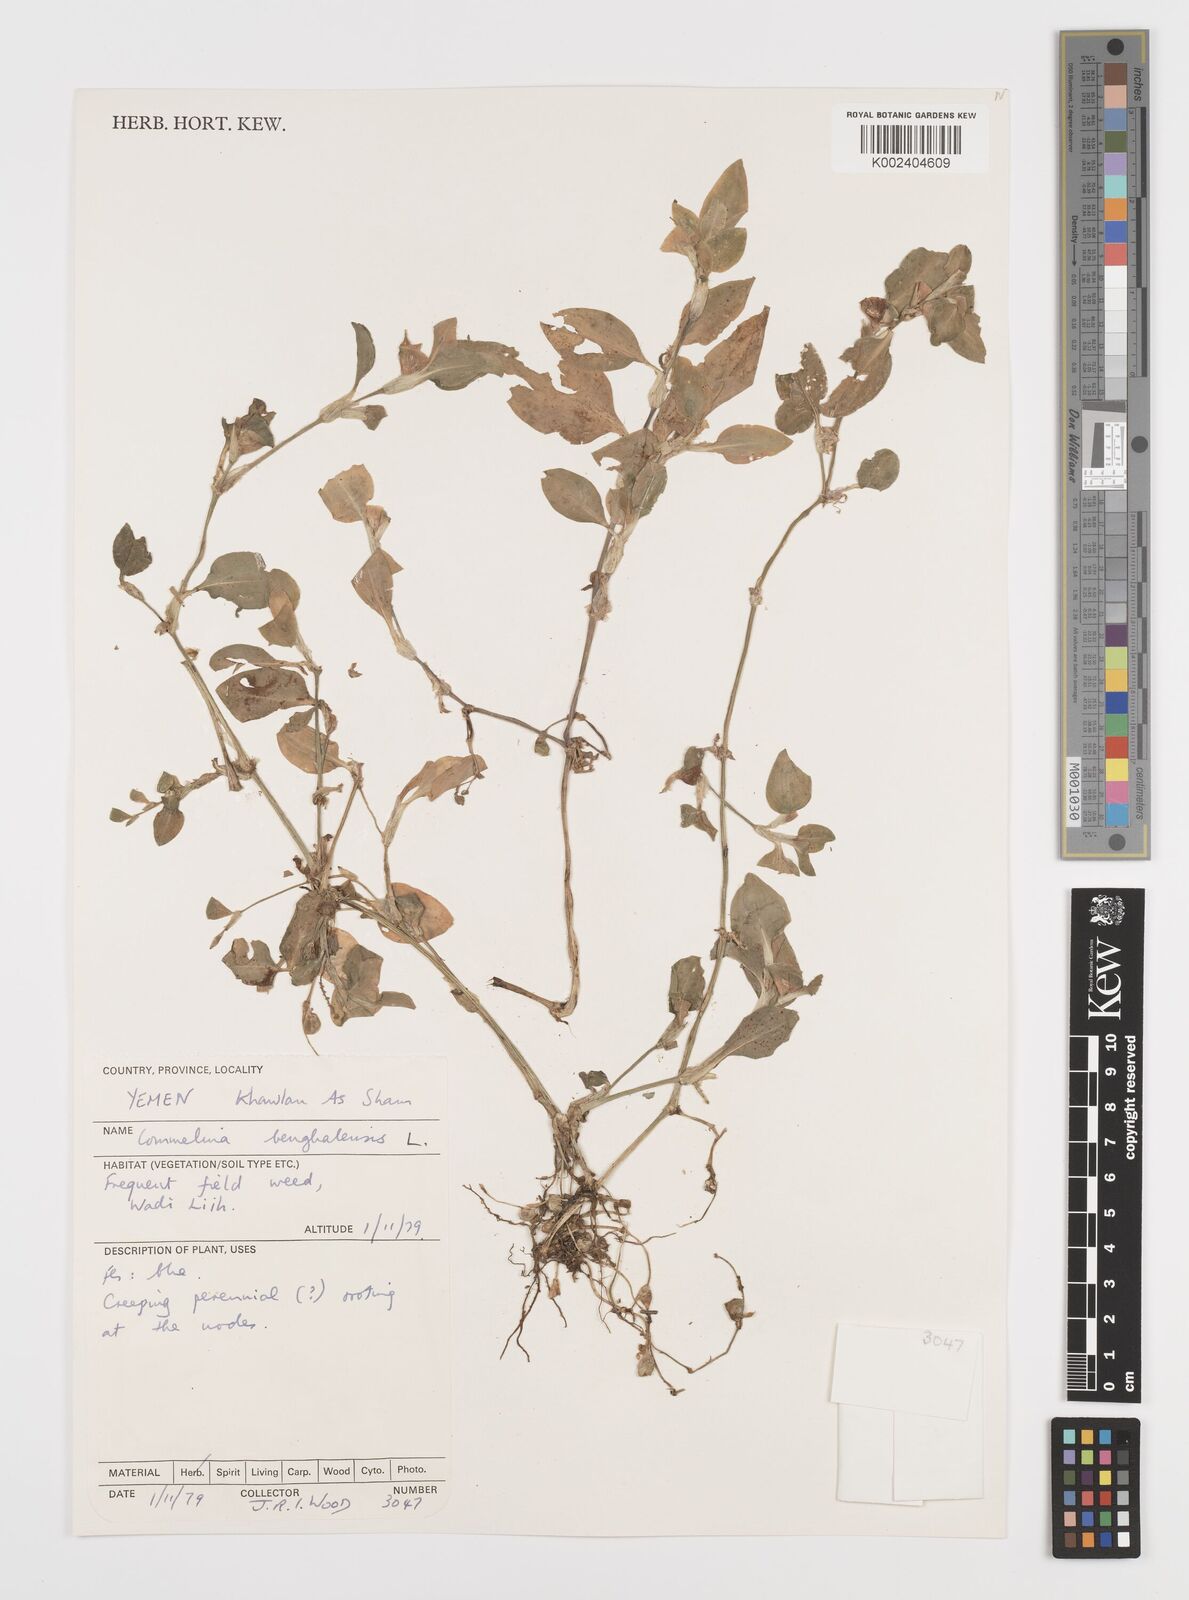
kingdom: Plantae
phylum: Tracheophyta
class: Liliopsida
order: Commelinales
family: Commelinaceae
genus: Commelina
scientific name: Commelina benghalensis
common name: Jio
